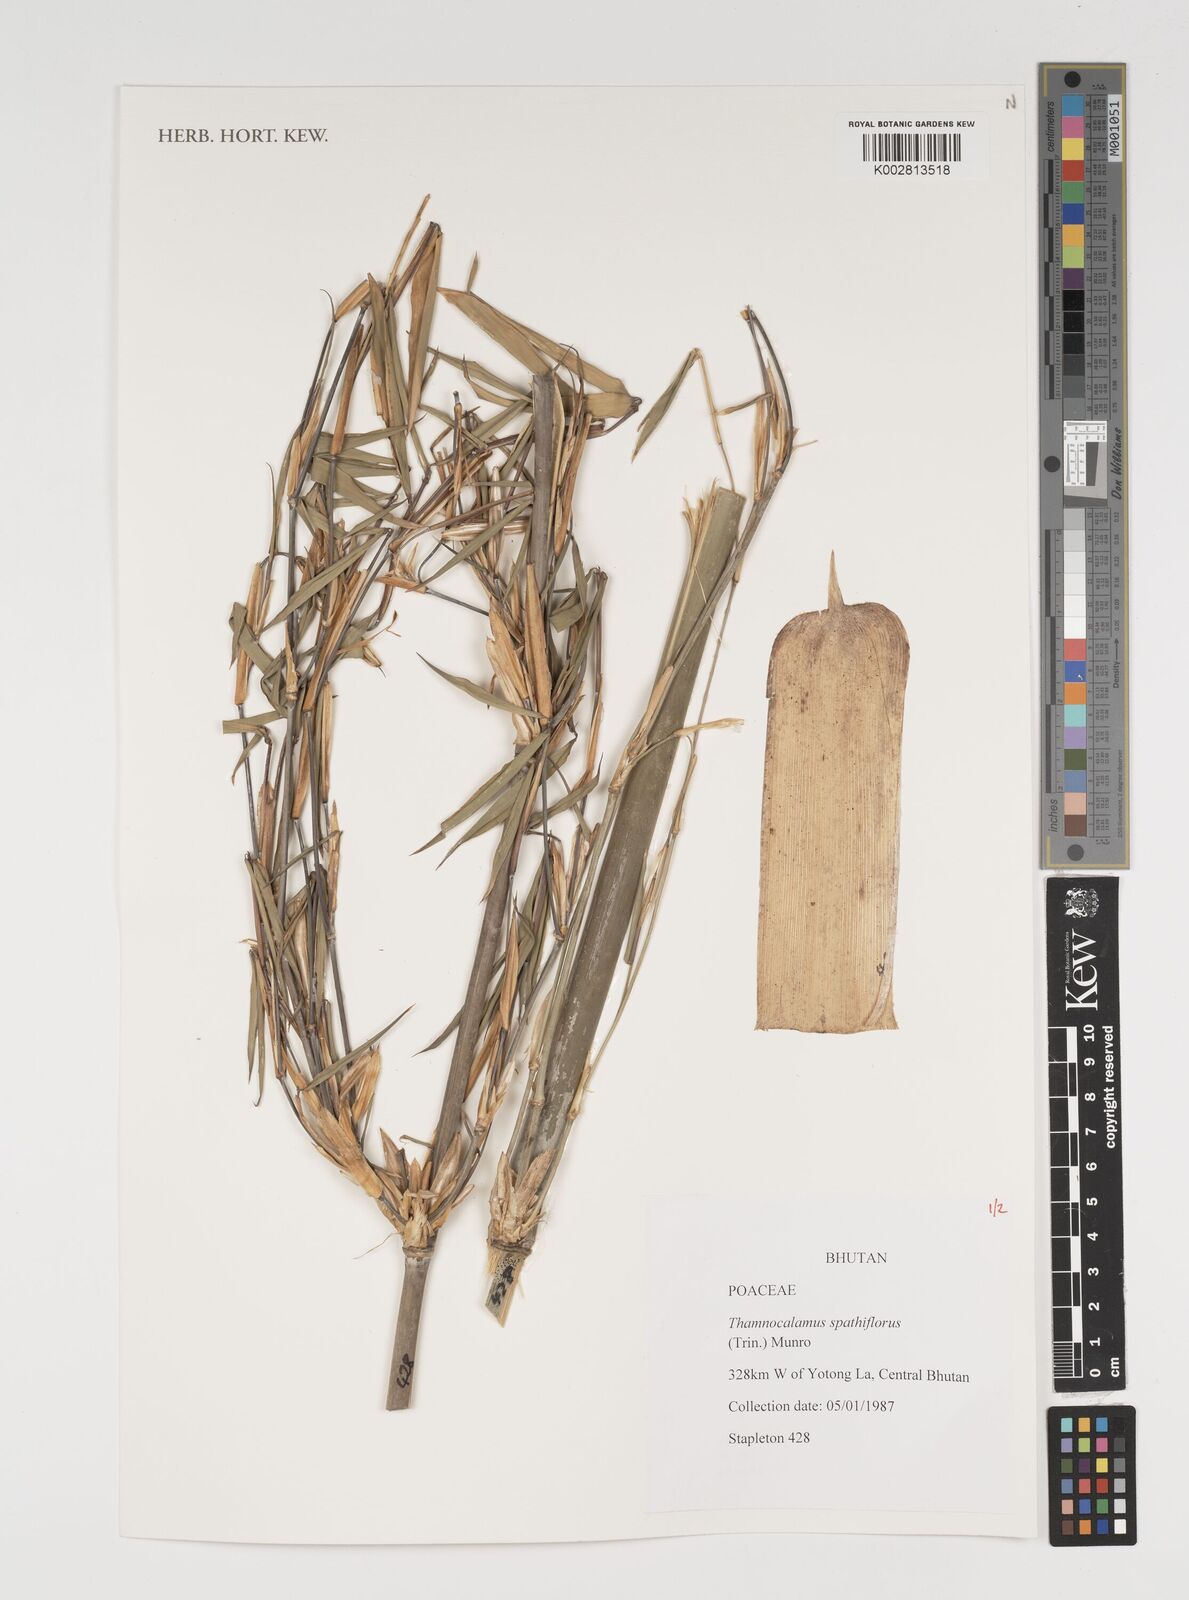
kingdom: Plantae
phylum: Tracheophyta
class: Liliopsida
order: Poales
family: Poaceae
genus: Thamnocalamus
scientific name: Thamnocalamus spathiflorus
